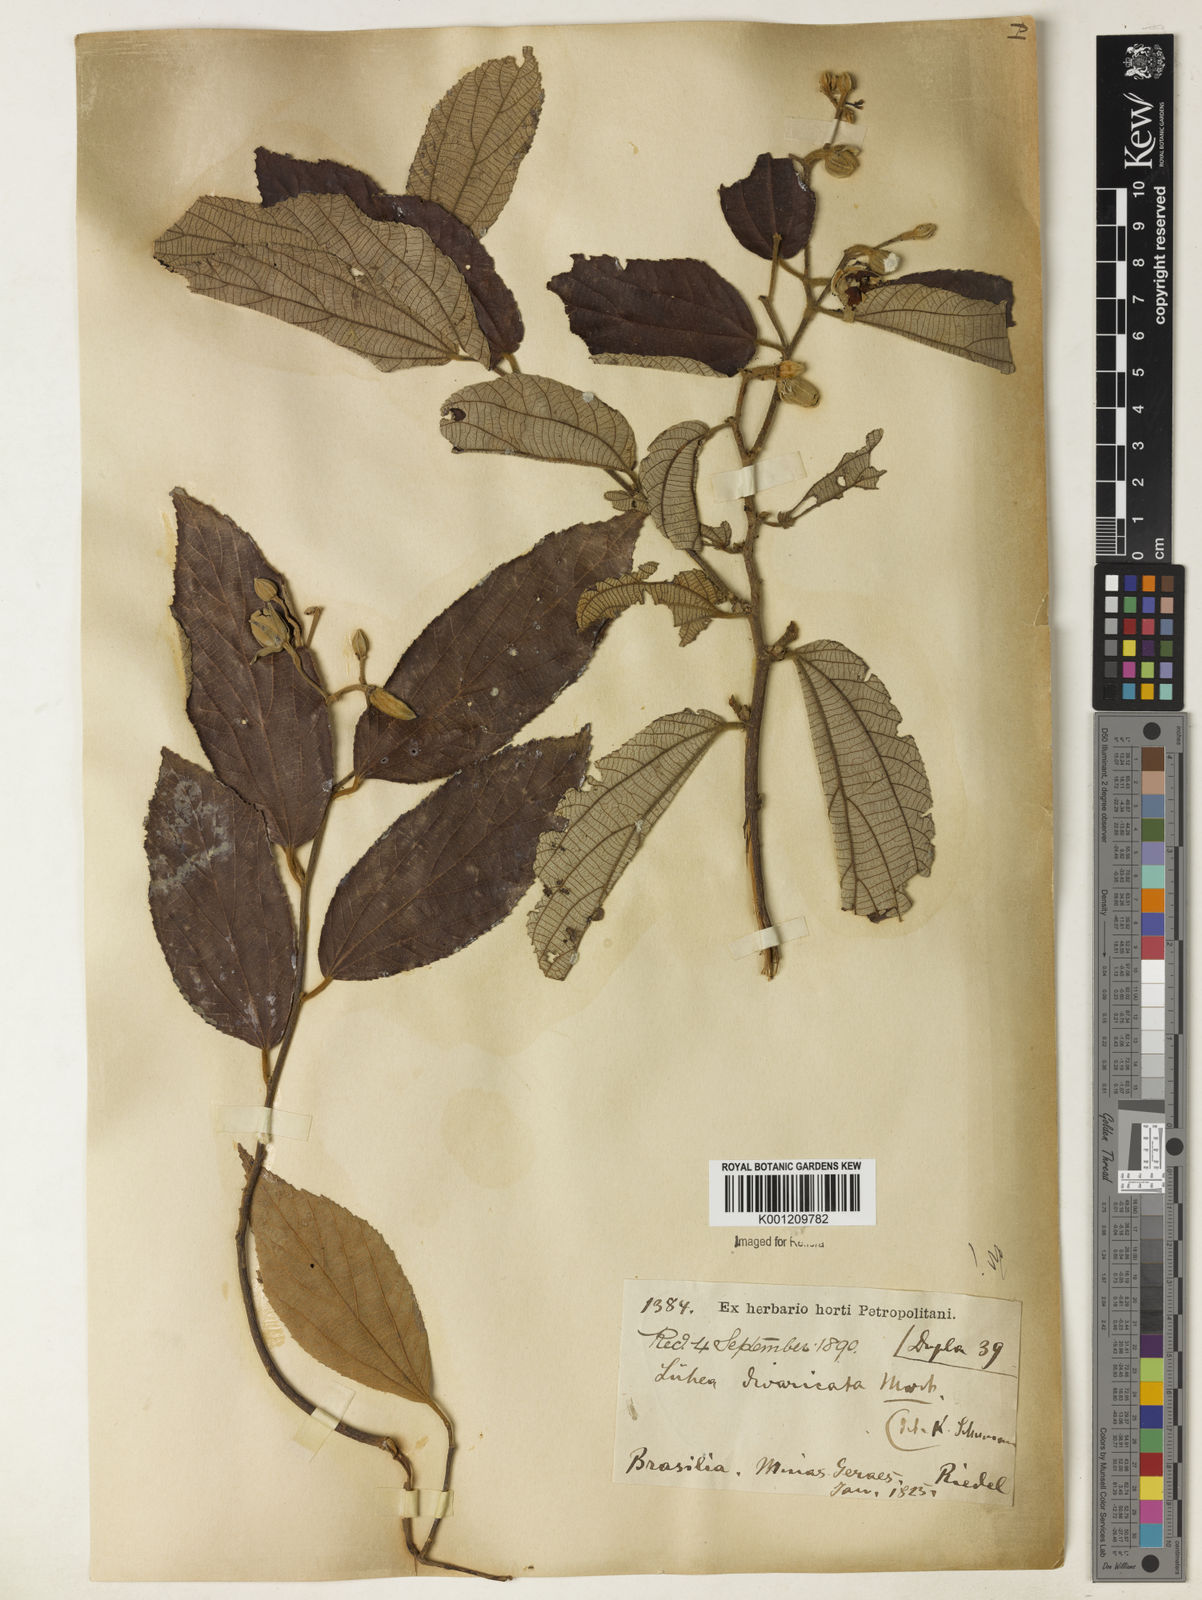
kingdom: Plantae
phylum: Tracheophyta
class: Magnoliopsida
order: Malvales
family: Malvaceae
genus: Luehea
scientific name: Luehea divaricata
